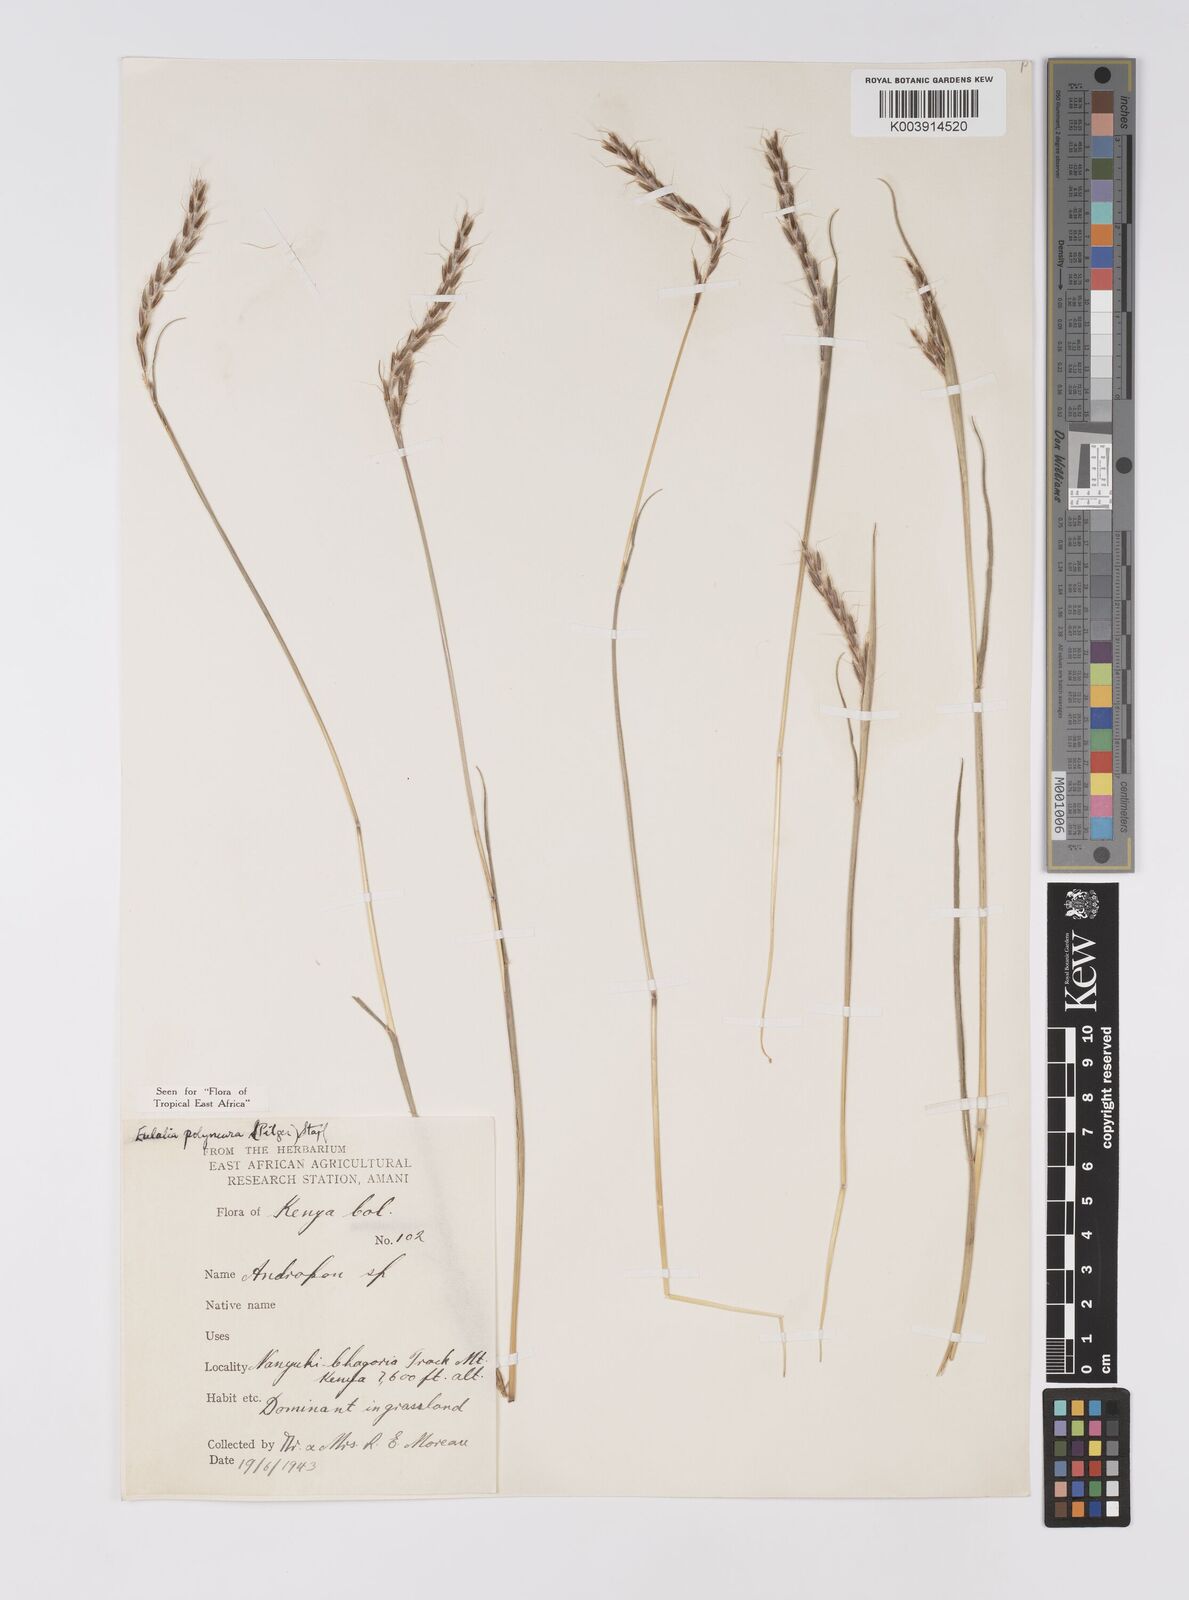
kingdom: Plantae
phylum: Tracheophyta
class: Liliopsida
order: Poales
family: Poaceae
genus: Eulalia
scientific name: Eulalia polyneura
